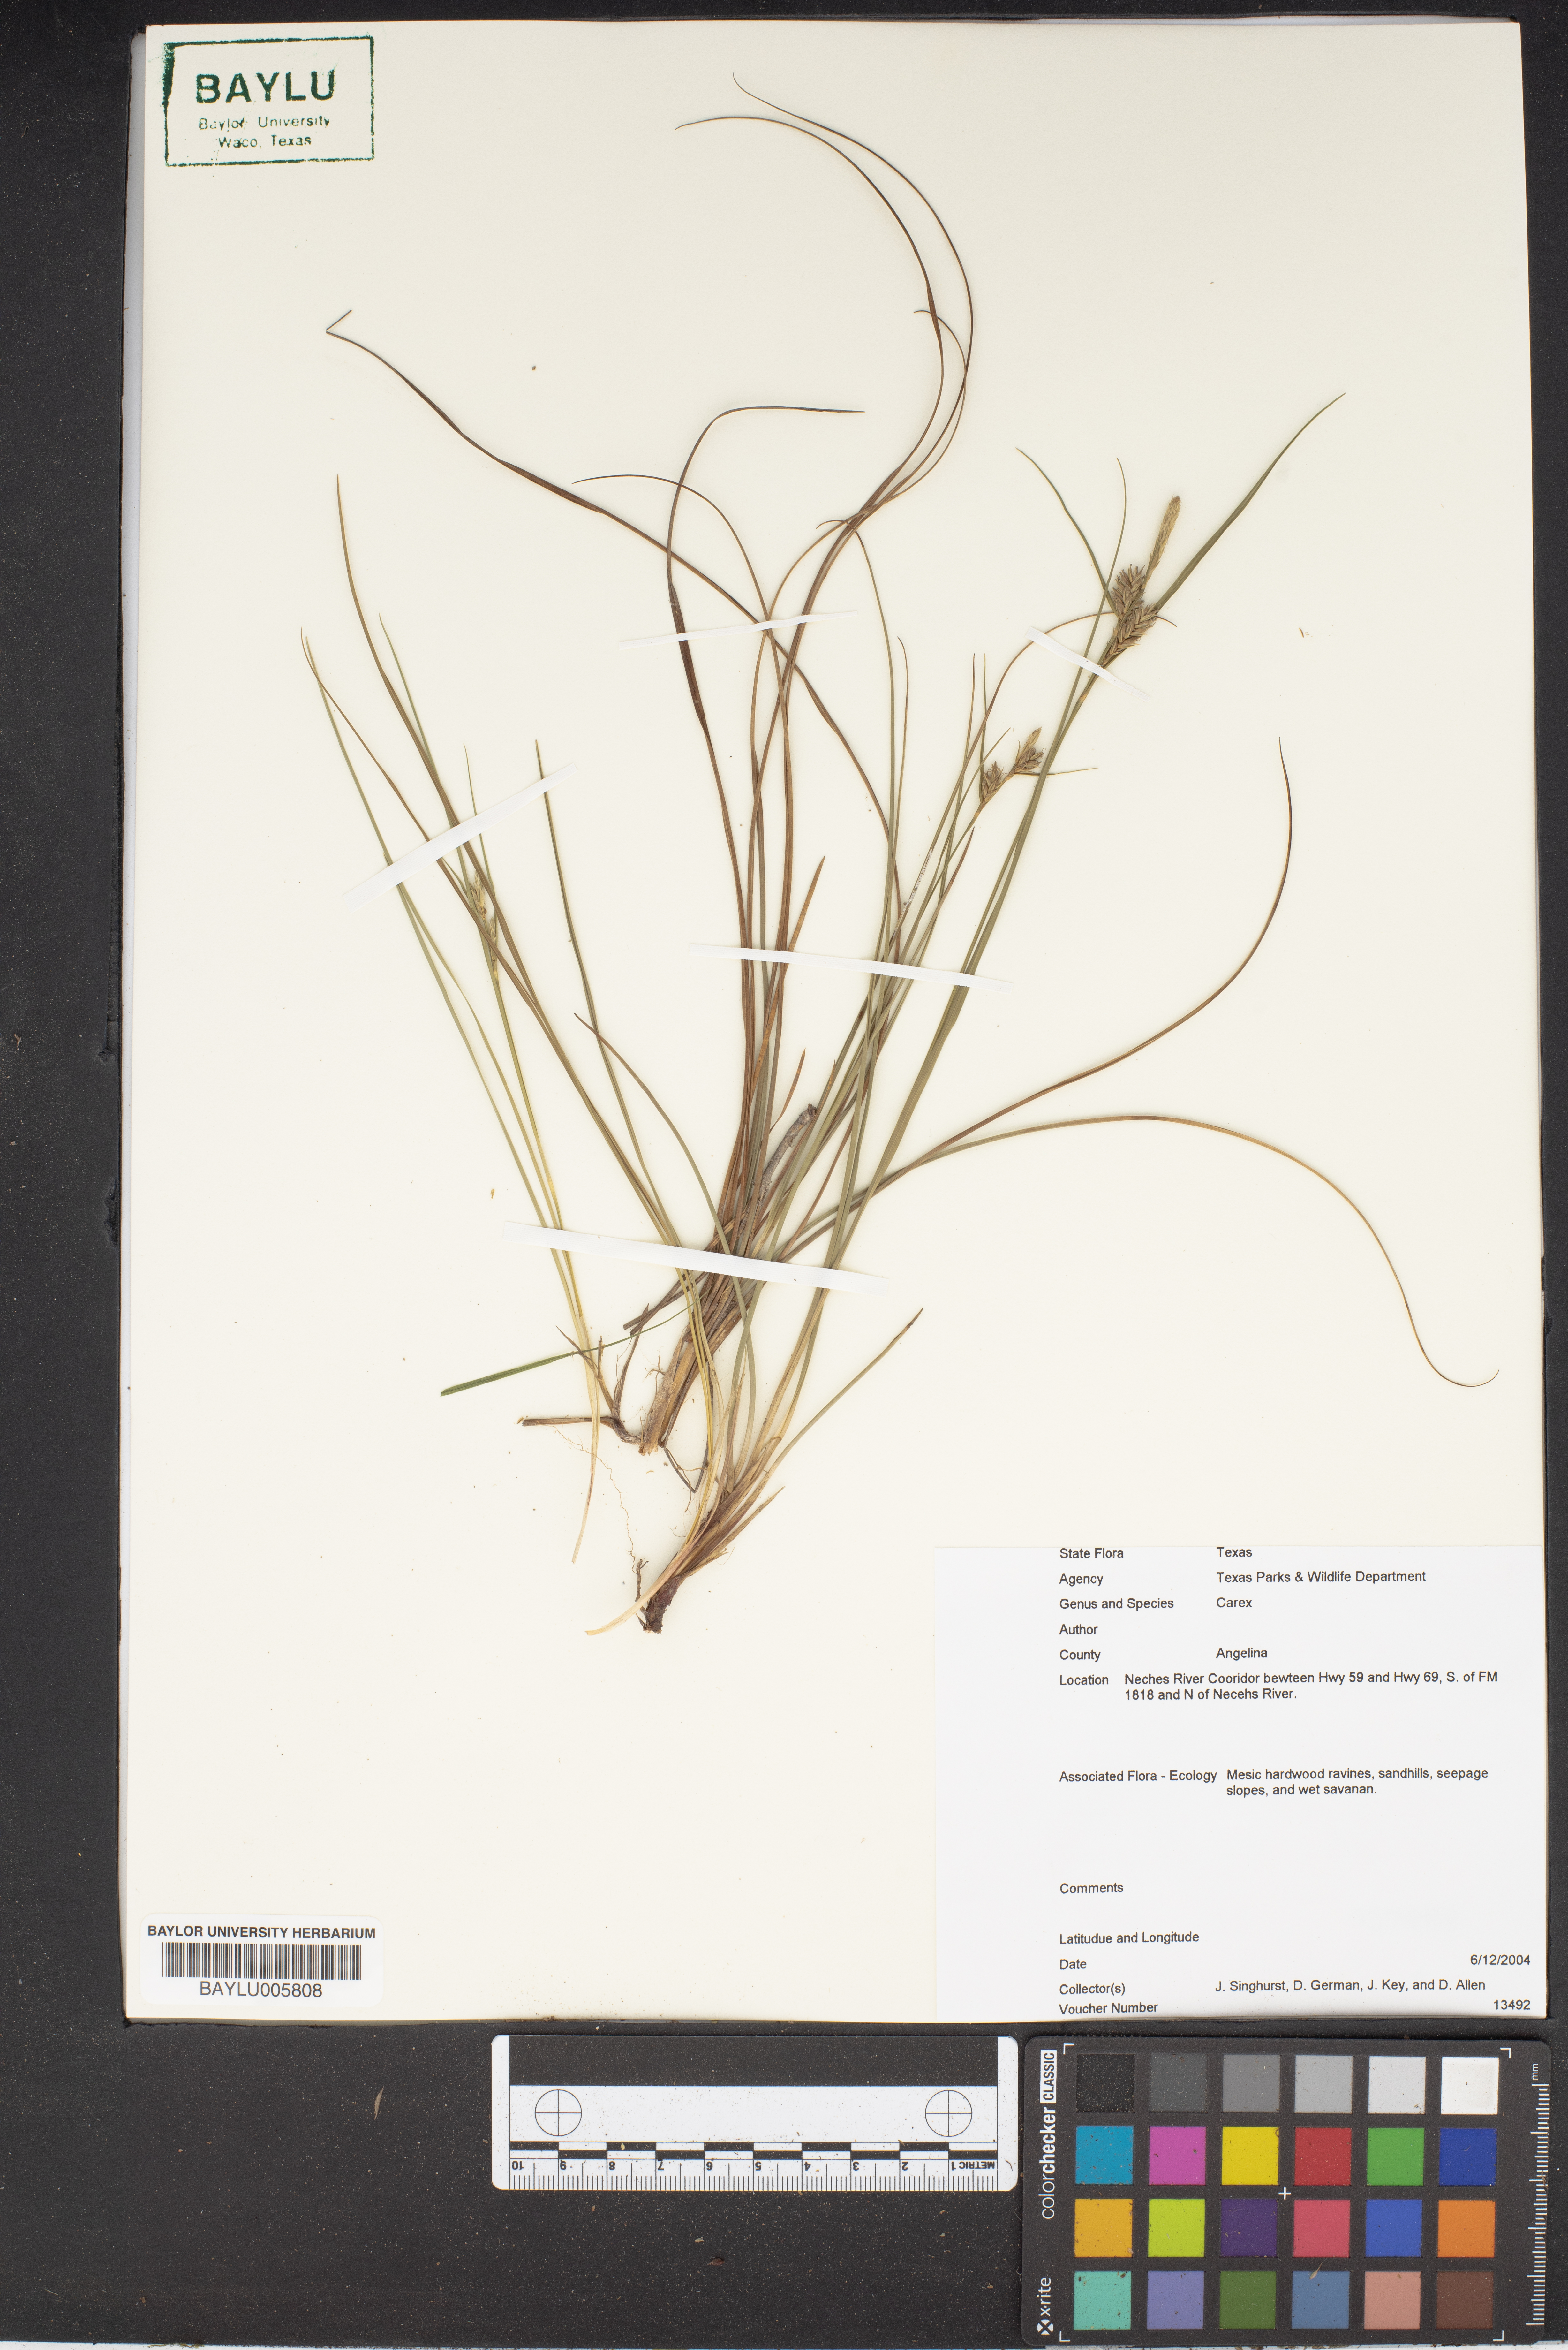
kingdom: Plantae
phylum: Tracheophyta
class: Liliopsida
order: Poales
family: Cyperaceae
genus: Carex
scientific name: Carex
